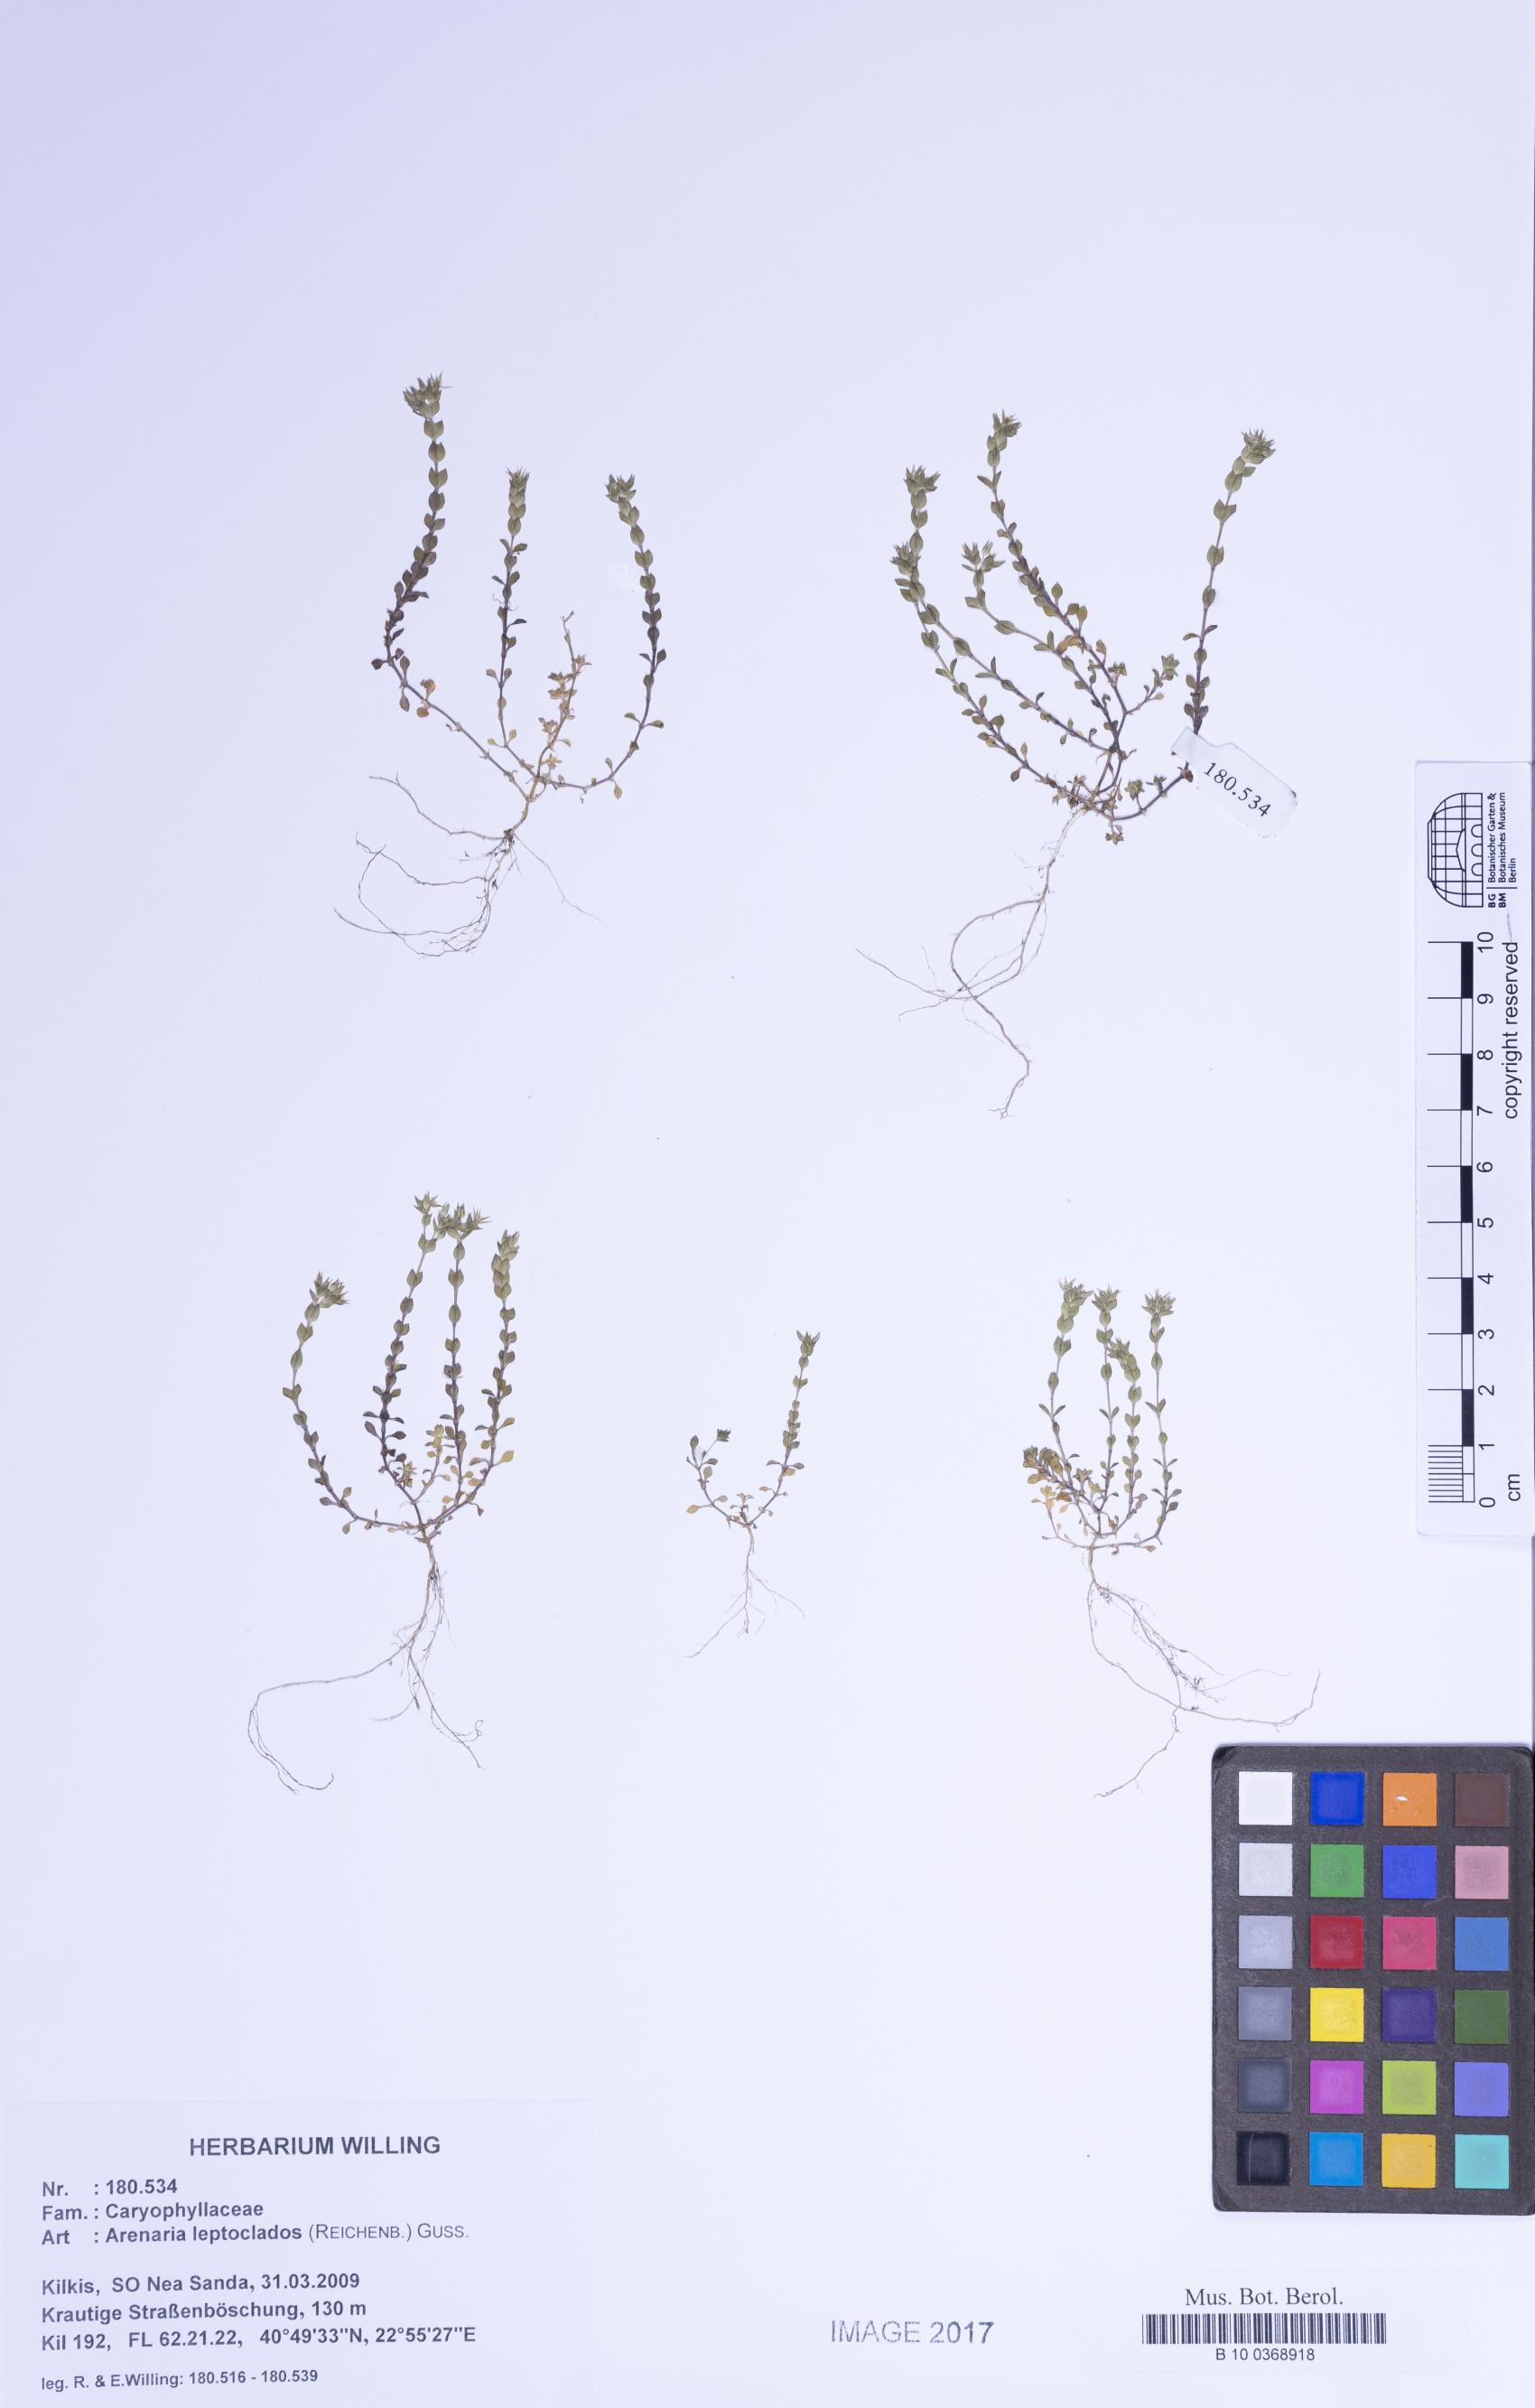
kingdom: Plantae
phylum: Tracheophyta
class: Magnoliopsida
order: Caryophyllales
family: Caryophyllaceae
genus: Arenaria
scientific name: Arenaria leptoclados
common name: Thyme-leaved sandwort
